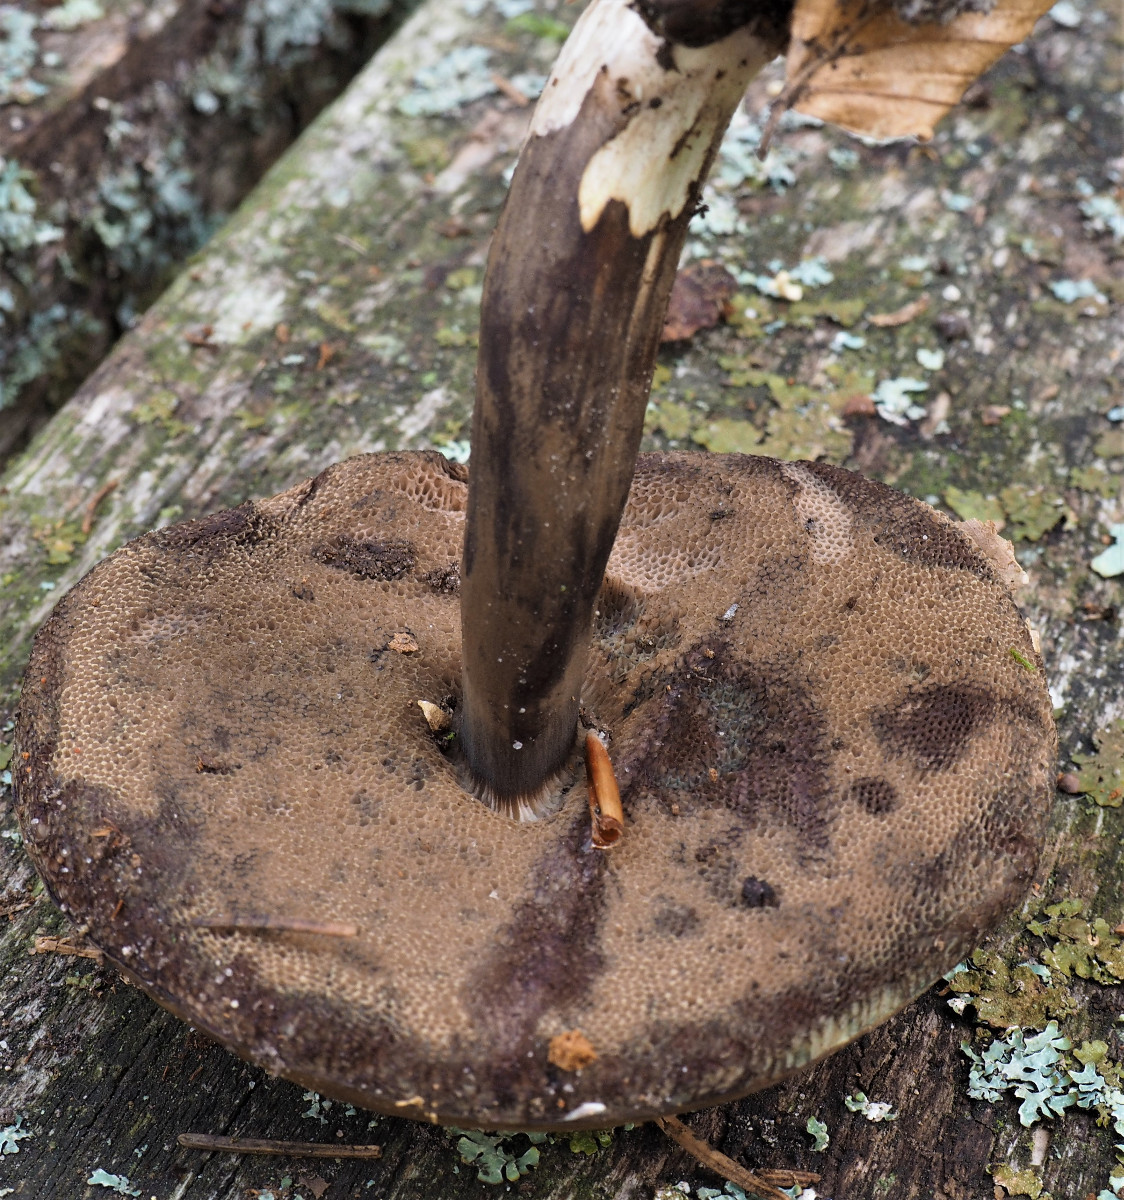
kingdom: Fungi
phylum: Basidiomycota
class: Agaricomycetes
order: Boletales
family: Boletaceae
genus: Porphyrellus
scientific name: Porphyrellus porphyrosporus
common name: sodrørhat
